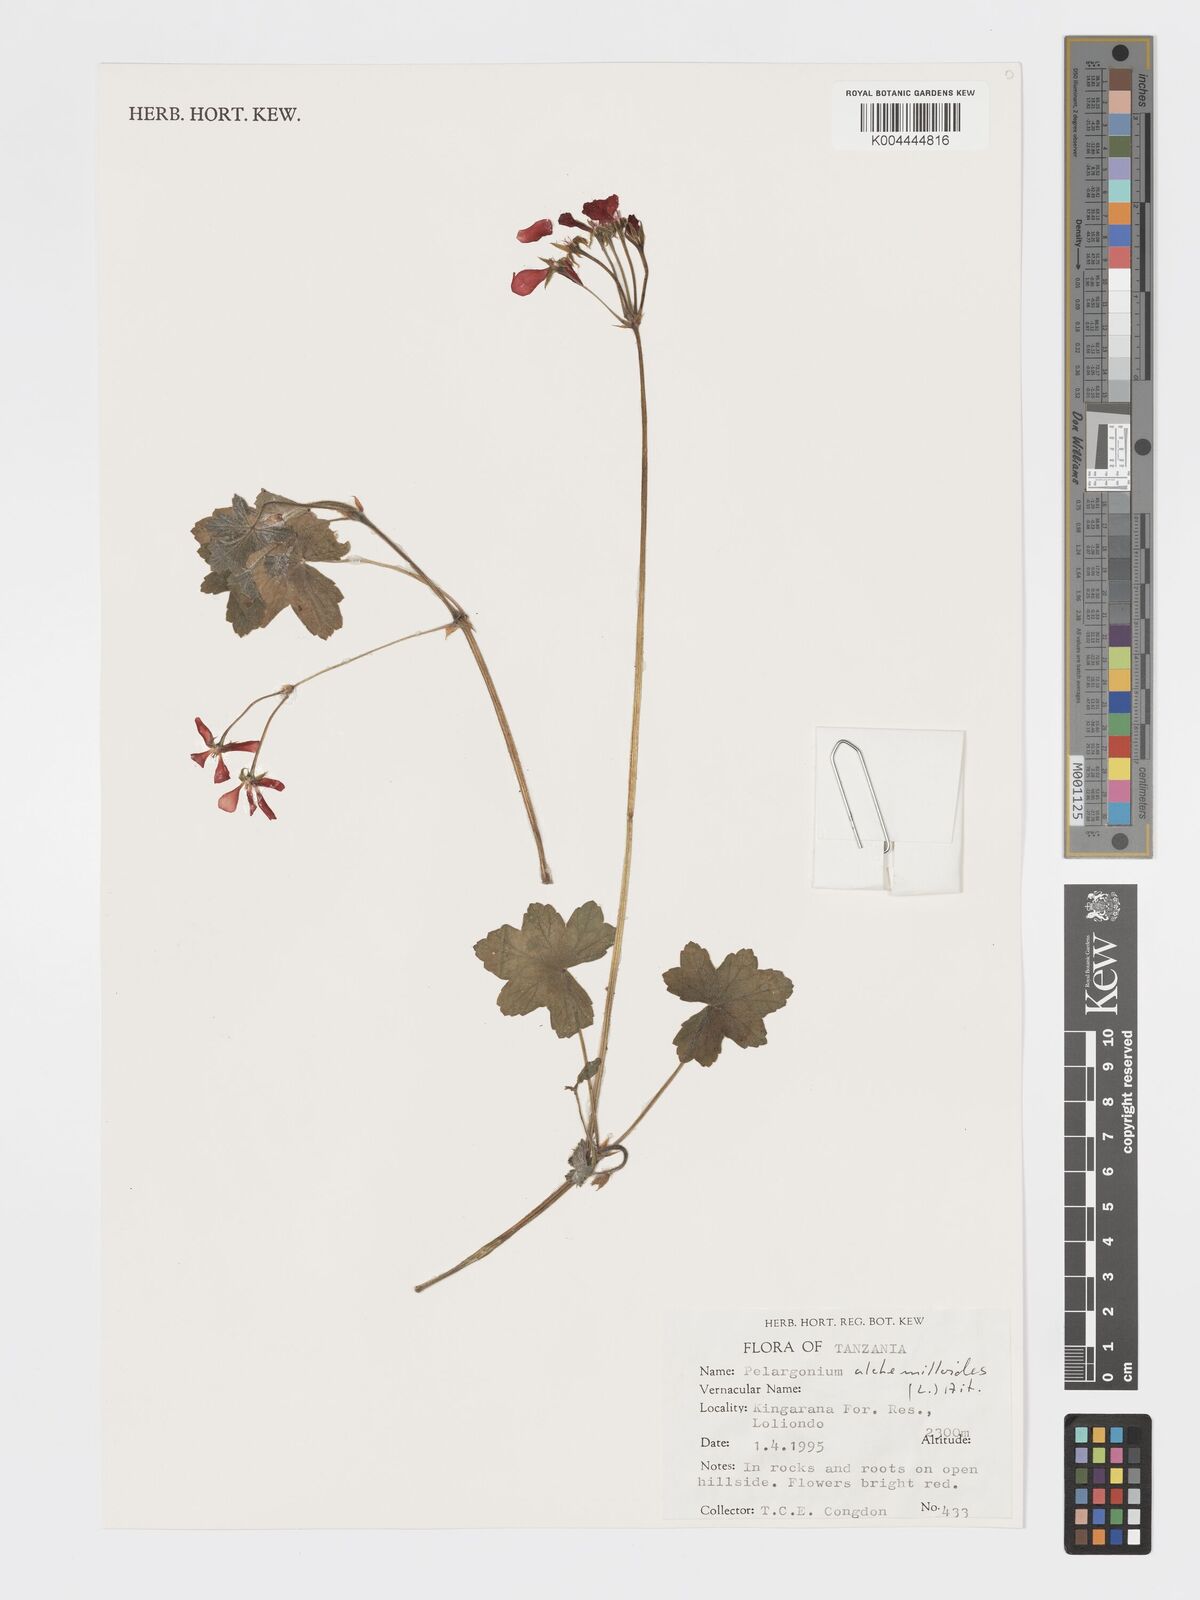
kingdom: Plantae
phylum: Tracheophyta
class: Magnoliopsida
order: Geraniales
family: Geraniaceae
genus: Pelargonium
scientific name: Pelargonium alchemilloides
